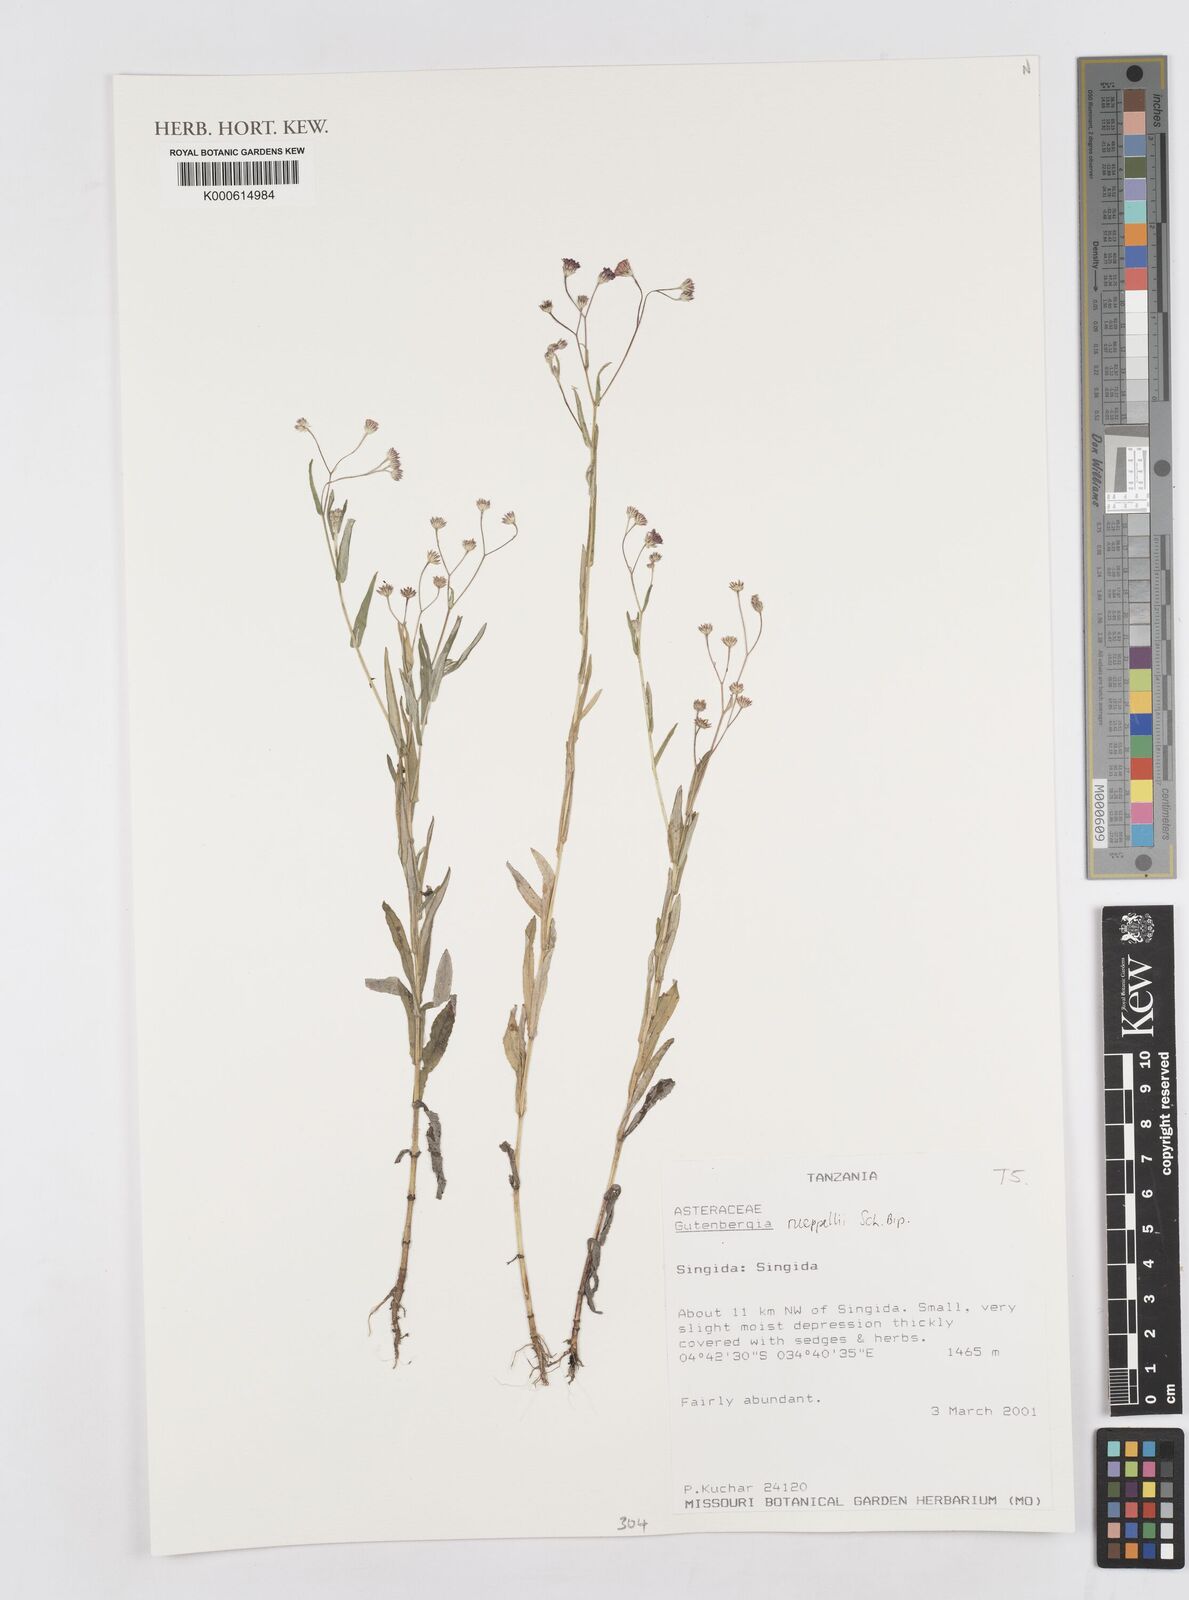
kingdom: Plantae
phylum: Tracheophyta
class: Magnoliopsida
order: Asterales
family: Asteraceae
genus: Gutenbergia
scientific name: Gutenbergia rueppellii
